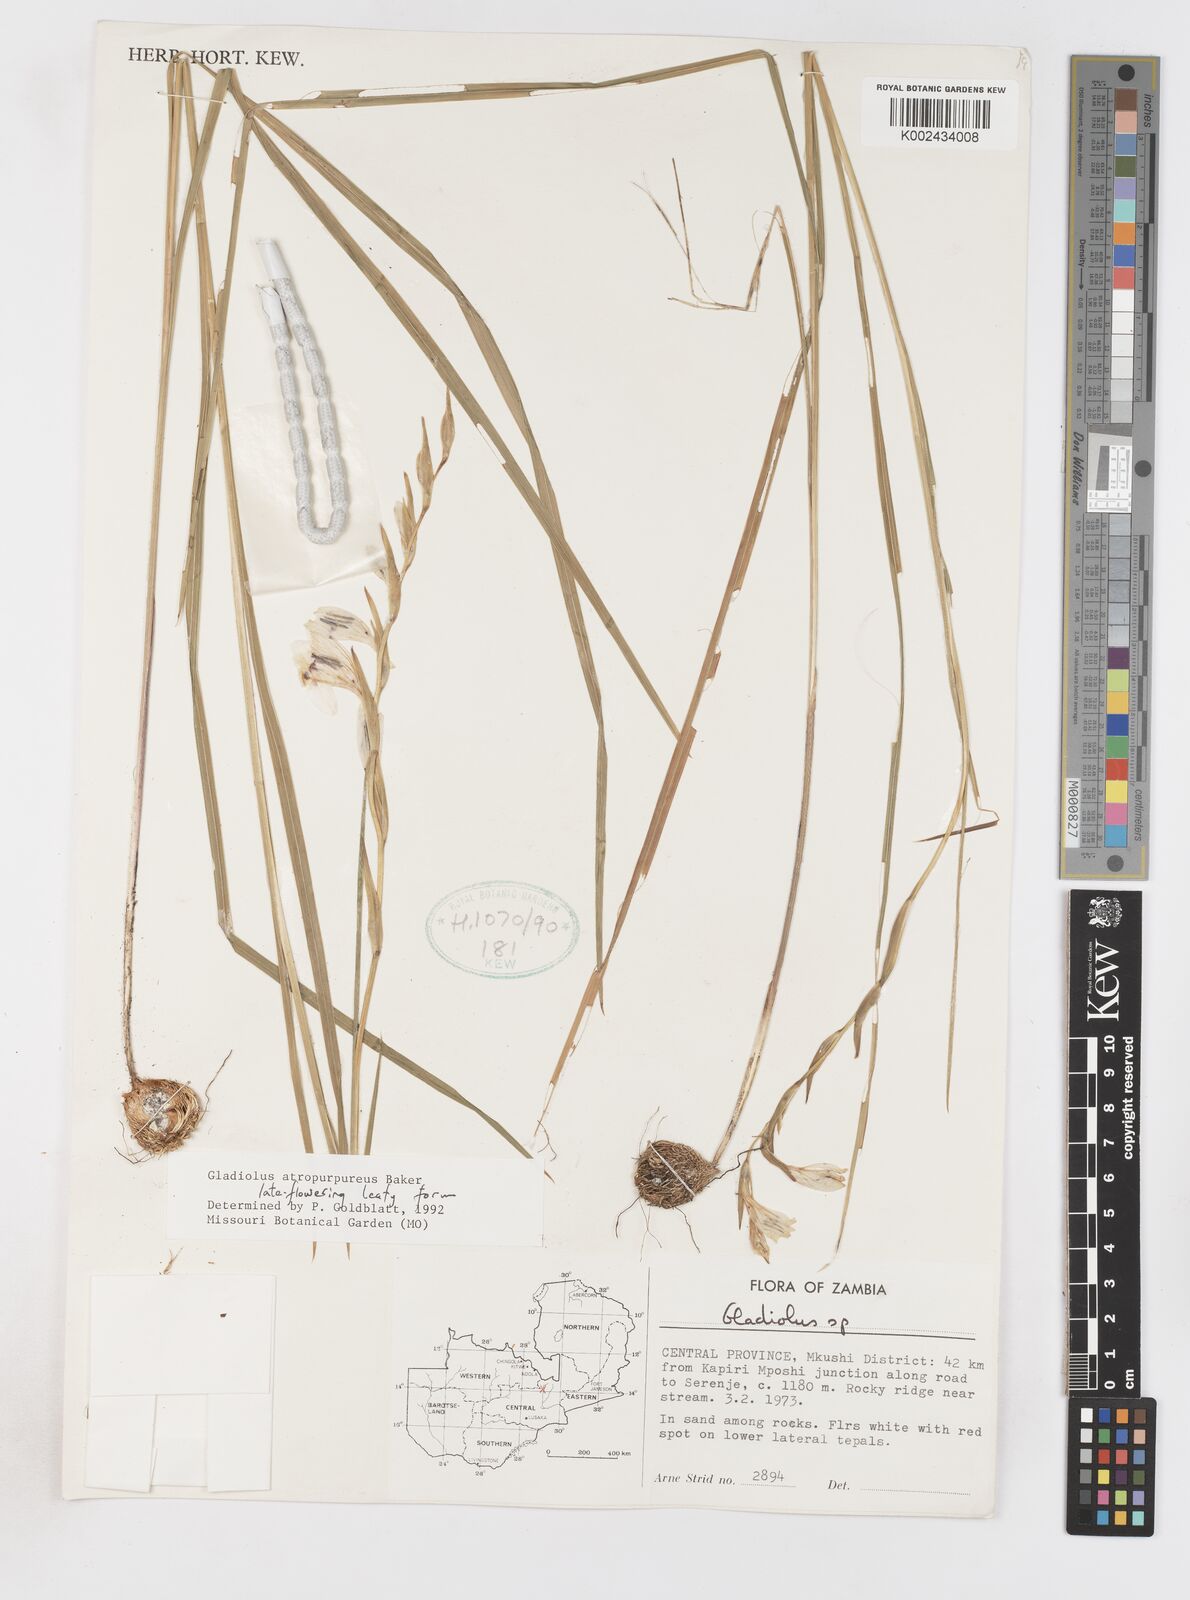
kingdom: Plantae
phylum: Tracheophyta
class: Liliopsida
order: Asparagales
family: Iridaceae
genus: Gladiolus
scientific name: Gladiolus atropurpureus
